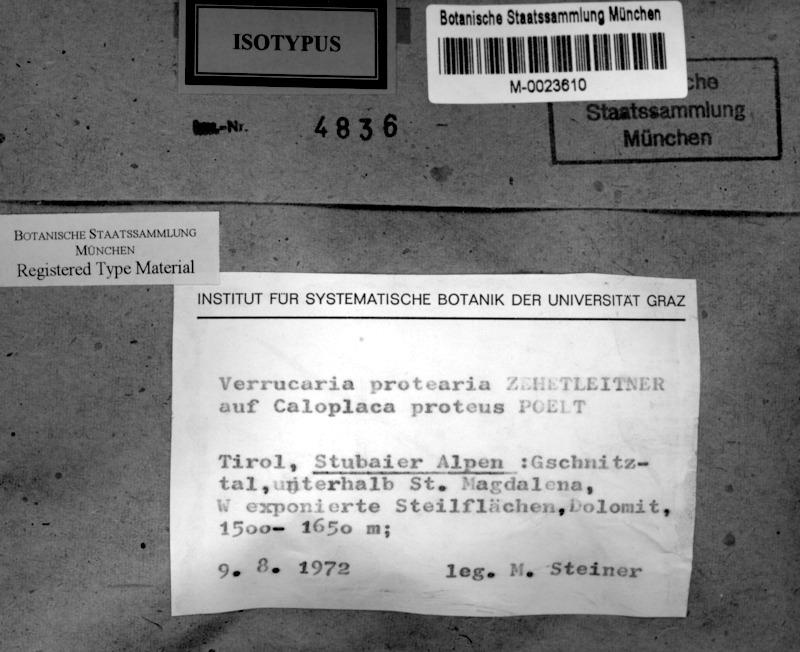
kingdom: Fungi
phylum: Ascomycota
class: Lecanoromycetes
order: Teloschistales
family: Teloschistaceae
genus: Leproplaca
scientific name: Leproplaca proteus
